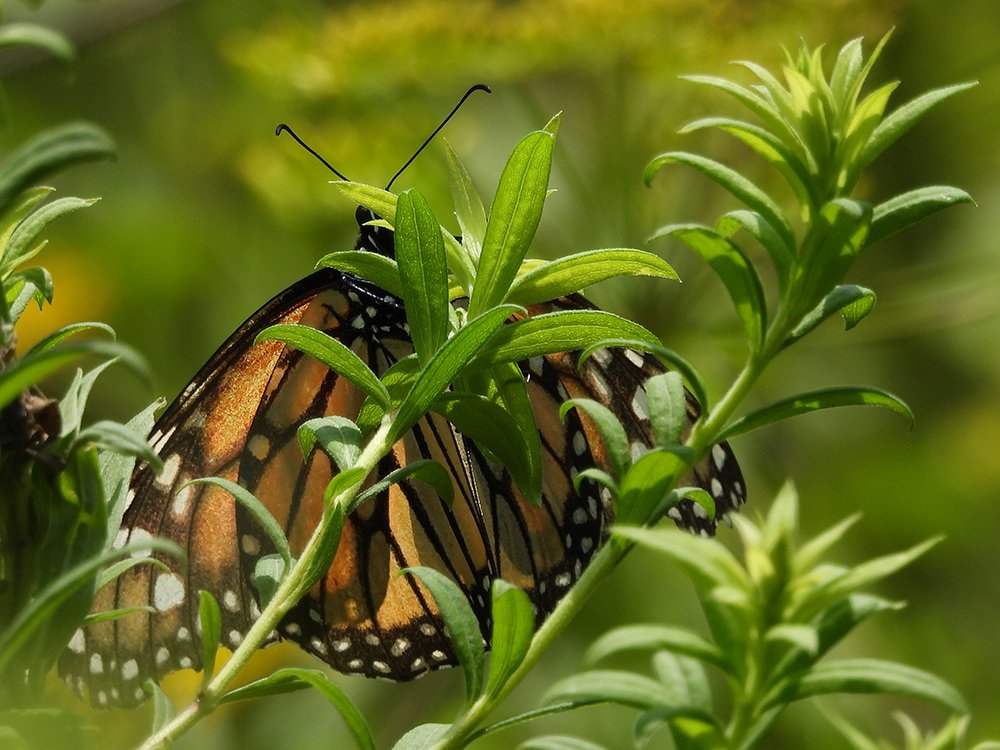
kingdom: Animalia
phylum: Arthropoda
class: Insecta
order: Lepidoptera
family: Nymphalidae
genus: Danaus
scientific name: Danaus plexippus
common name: Monarch
